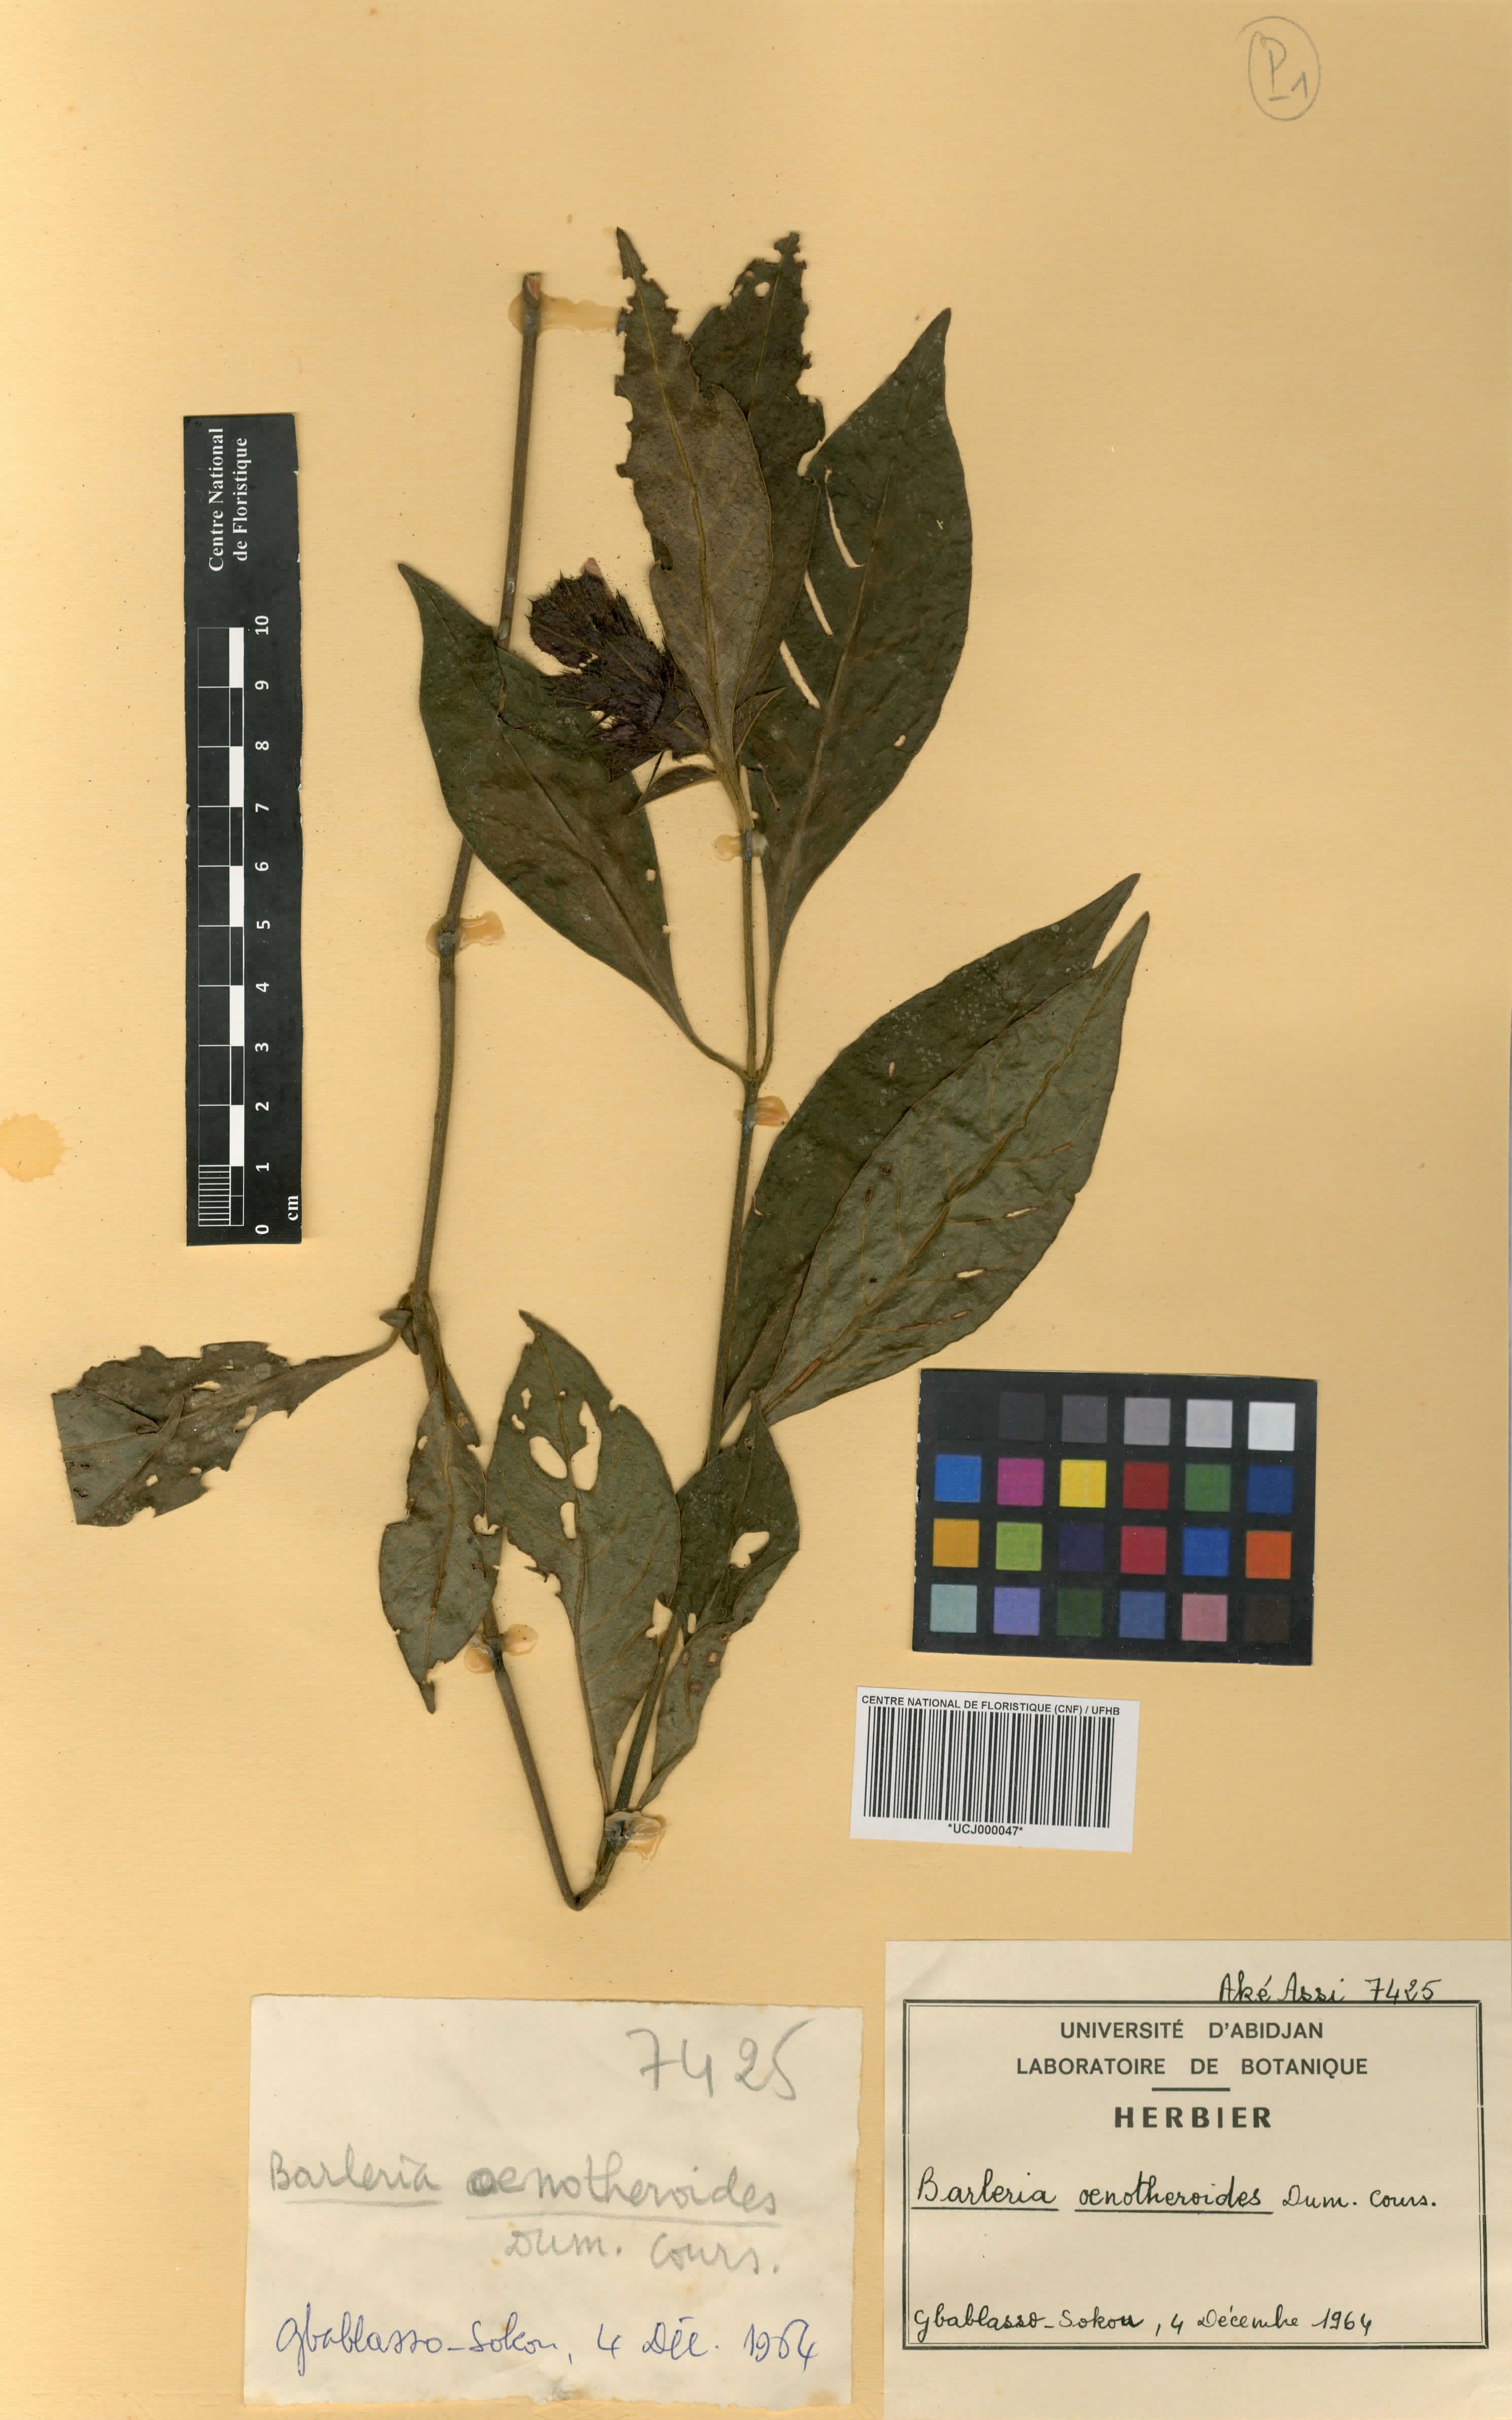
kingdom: Plantae
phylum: Tracheophyta
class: Magnoliopsida
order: Lamiales
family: Acanthaceae
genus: Barleria
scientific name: Barleria oenotheroides
